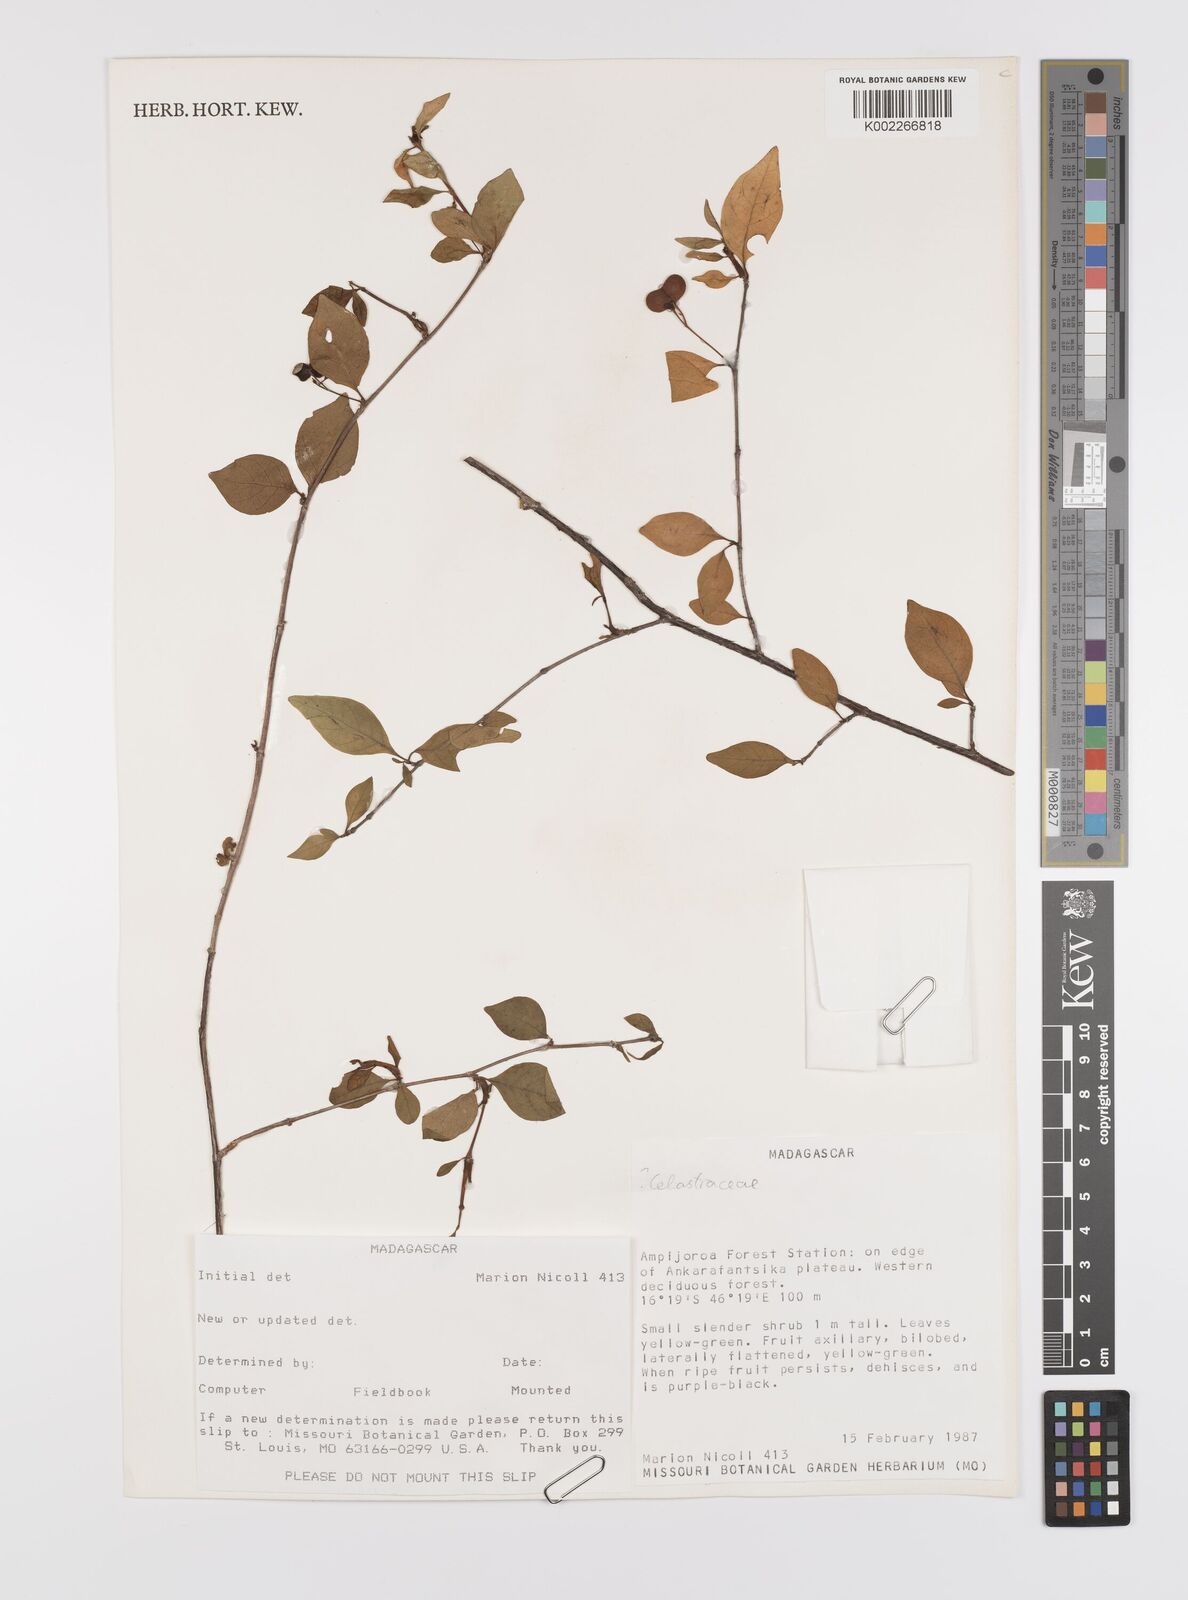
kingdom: Plantae
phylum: Tracheophyta
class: Magnoliopsida
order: Celastrales
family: Celastraceae
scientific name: Celastraceae
